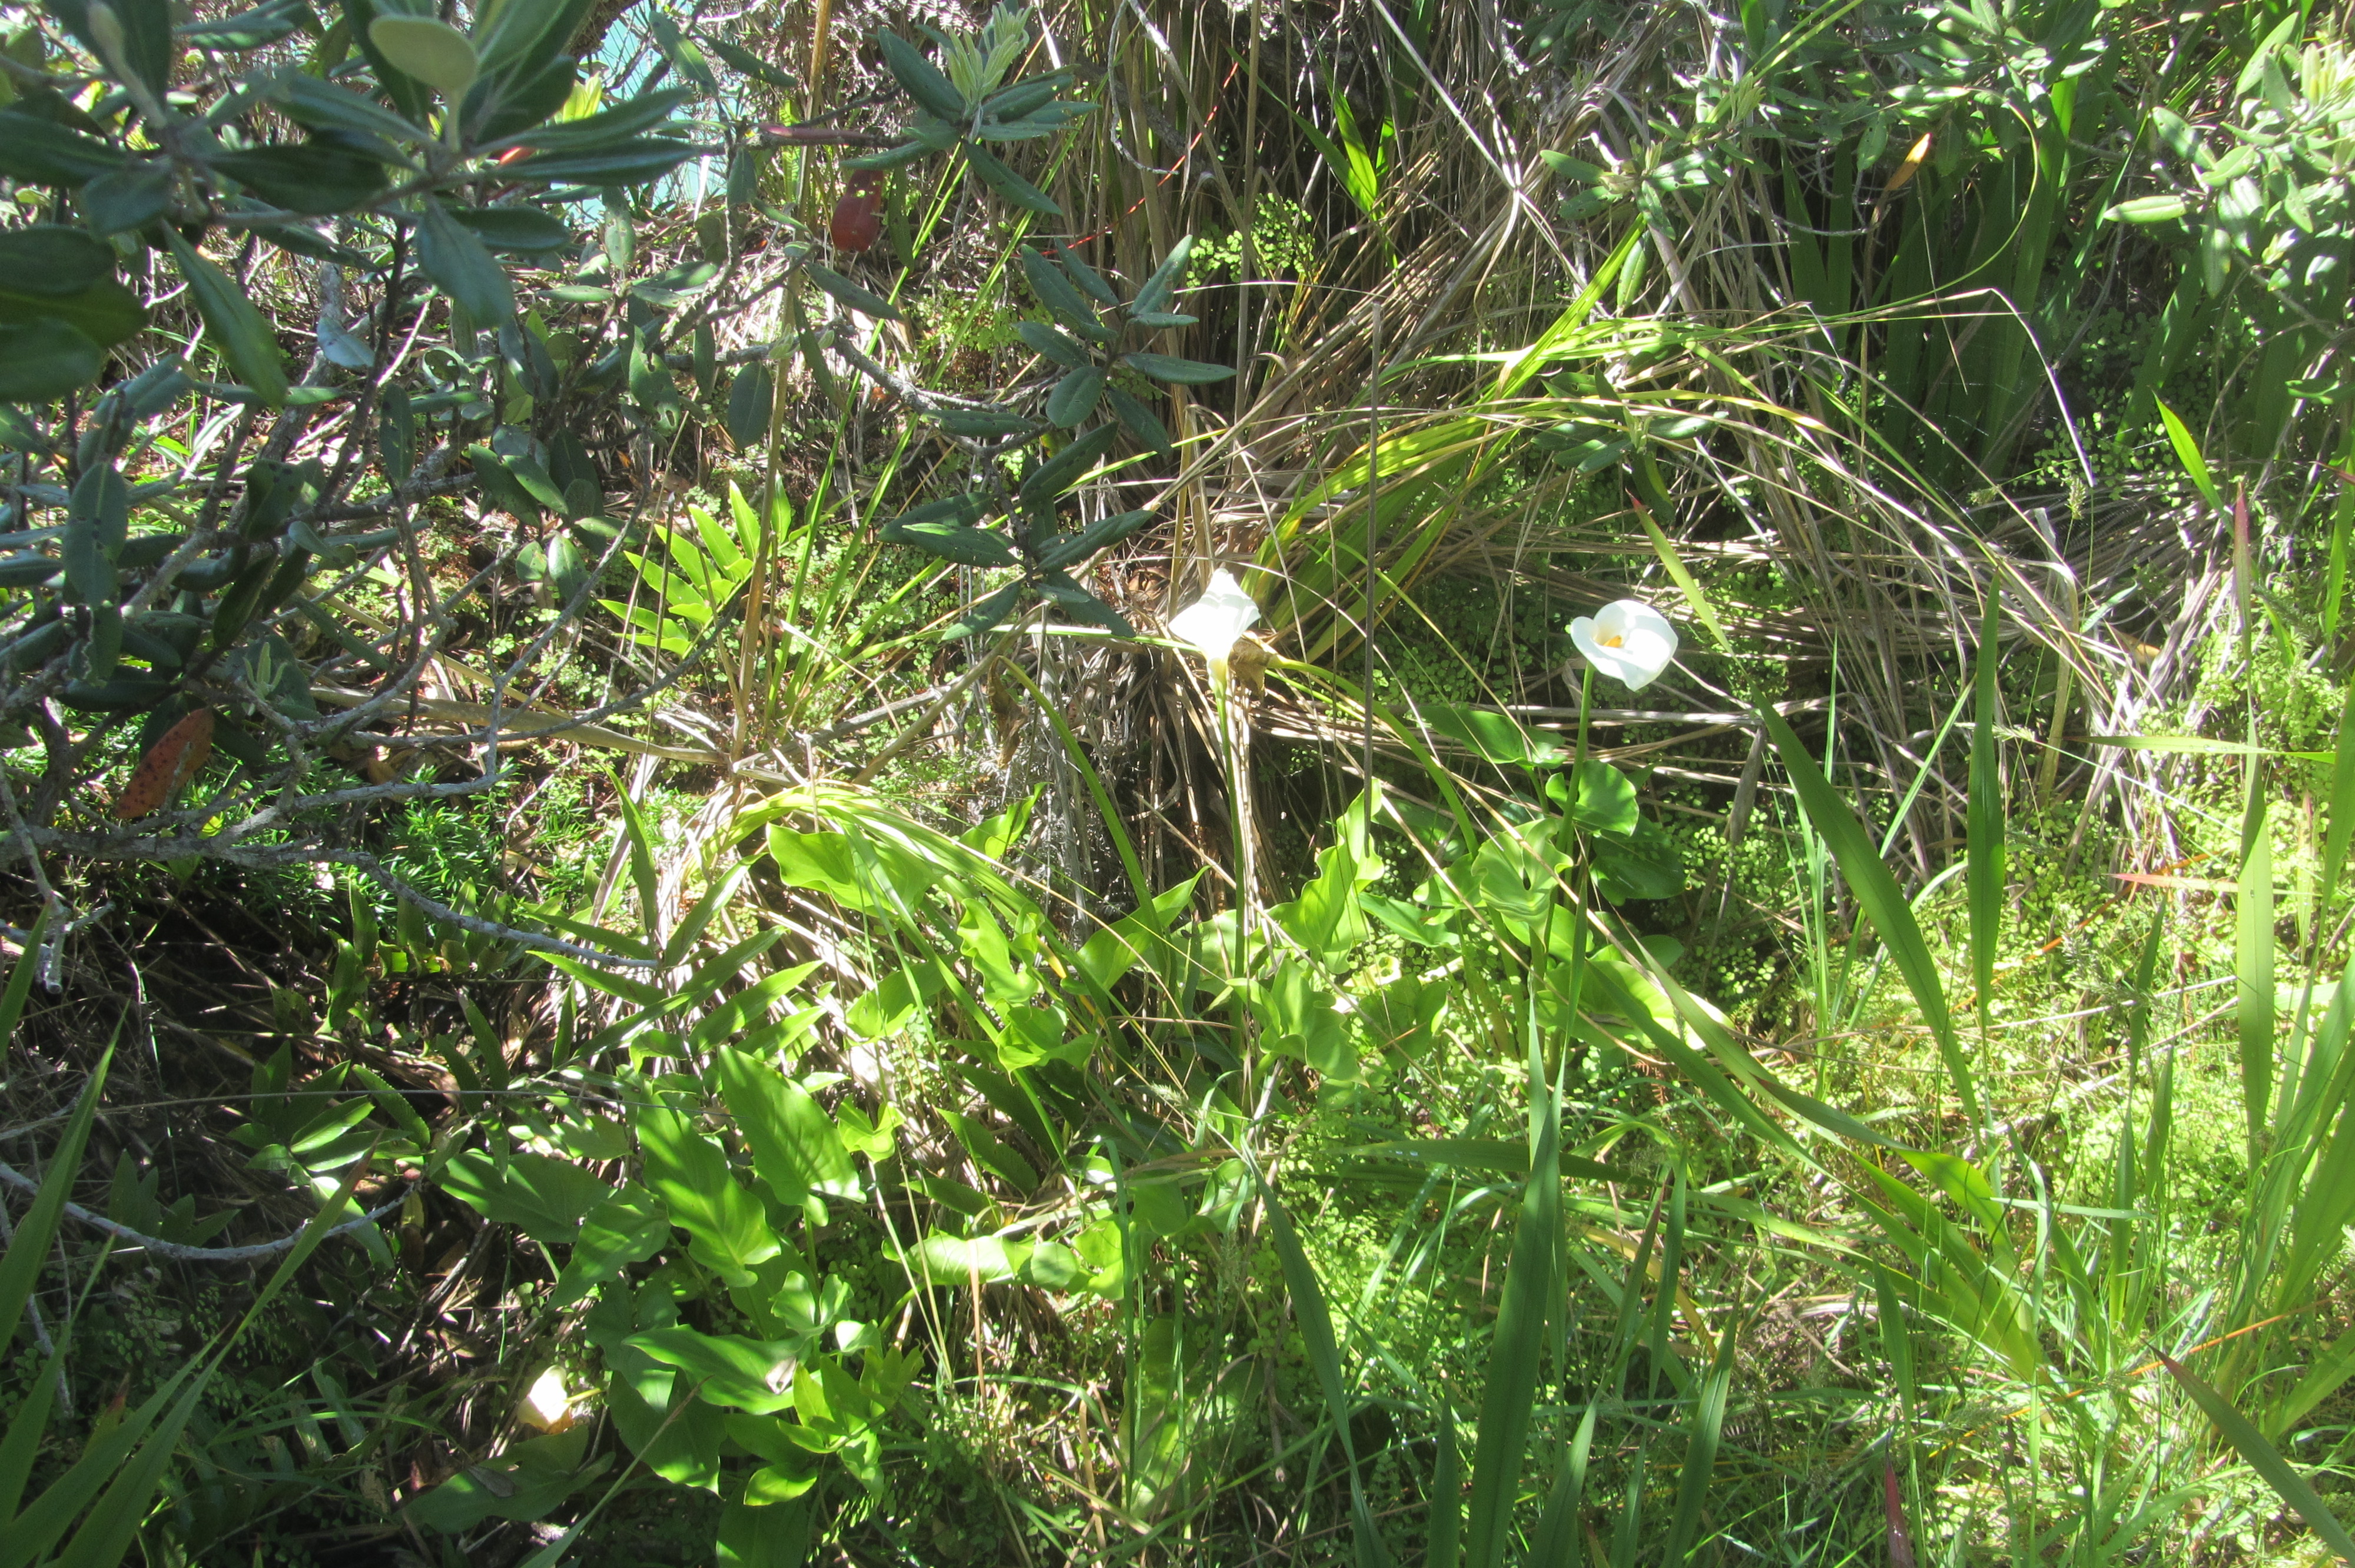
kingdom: Plantae
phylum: Tracheophyta
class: Liliopsida
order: Alismatales
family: Araceae
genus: Zantedeschia
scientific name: Zantedeschia aethiopica
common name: Altar-lily
